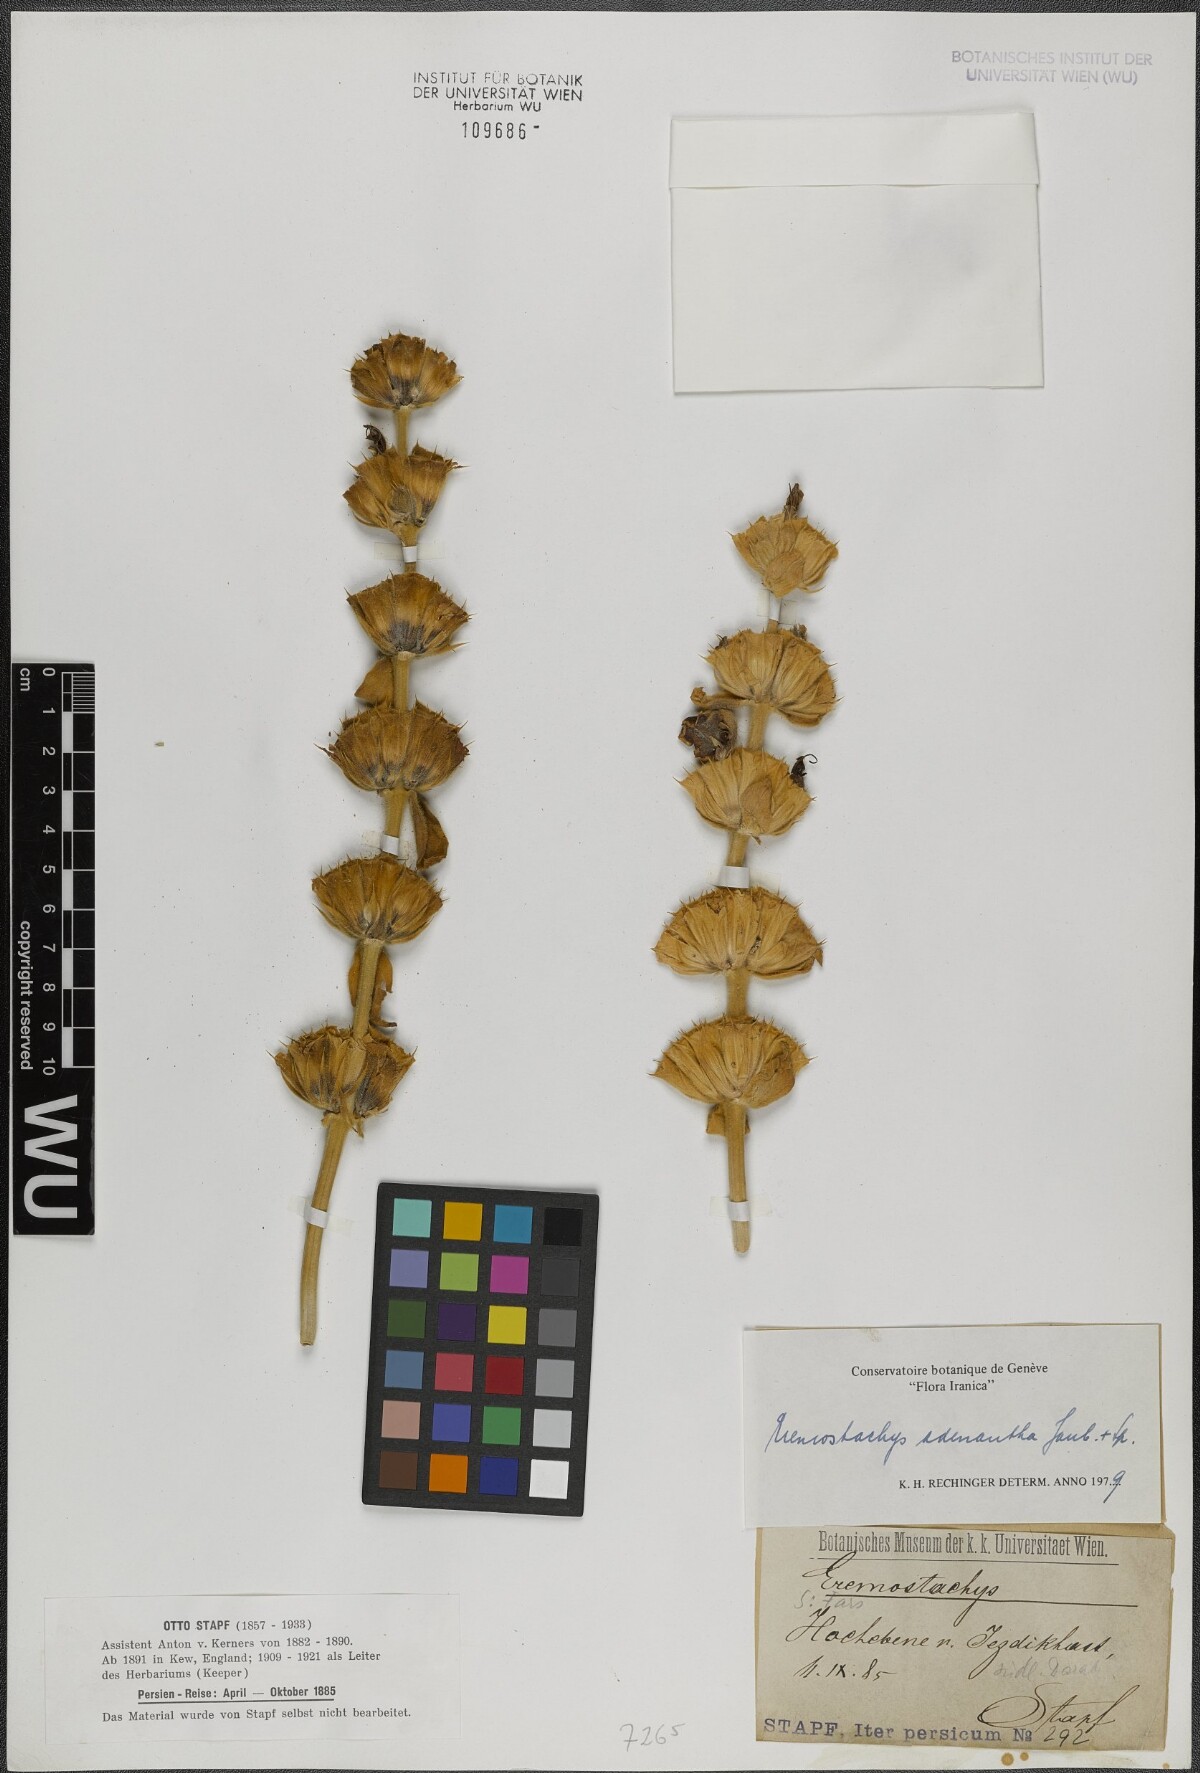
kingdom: Plantae
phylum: Tracheophyta
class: Magnoliopsida
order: Lamiales
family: Lamiaceae
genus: Phlomoides
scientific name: Phlomoides adenantha
